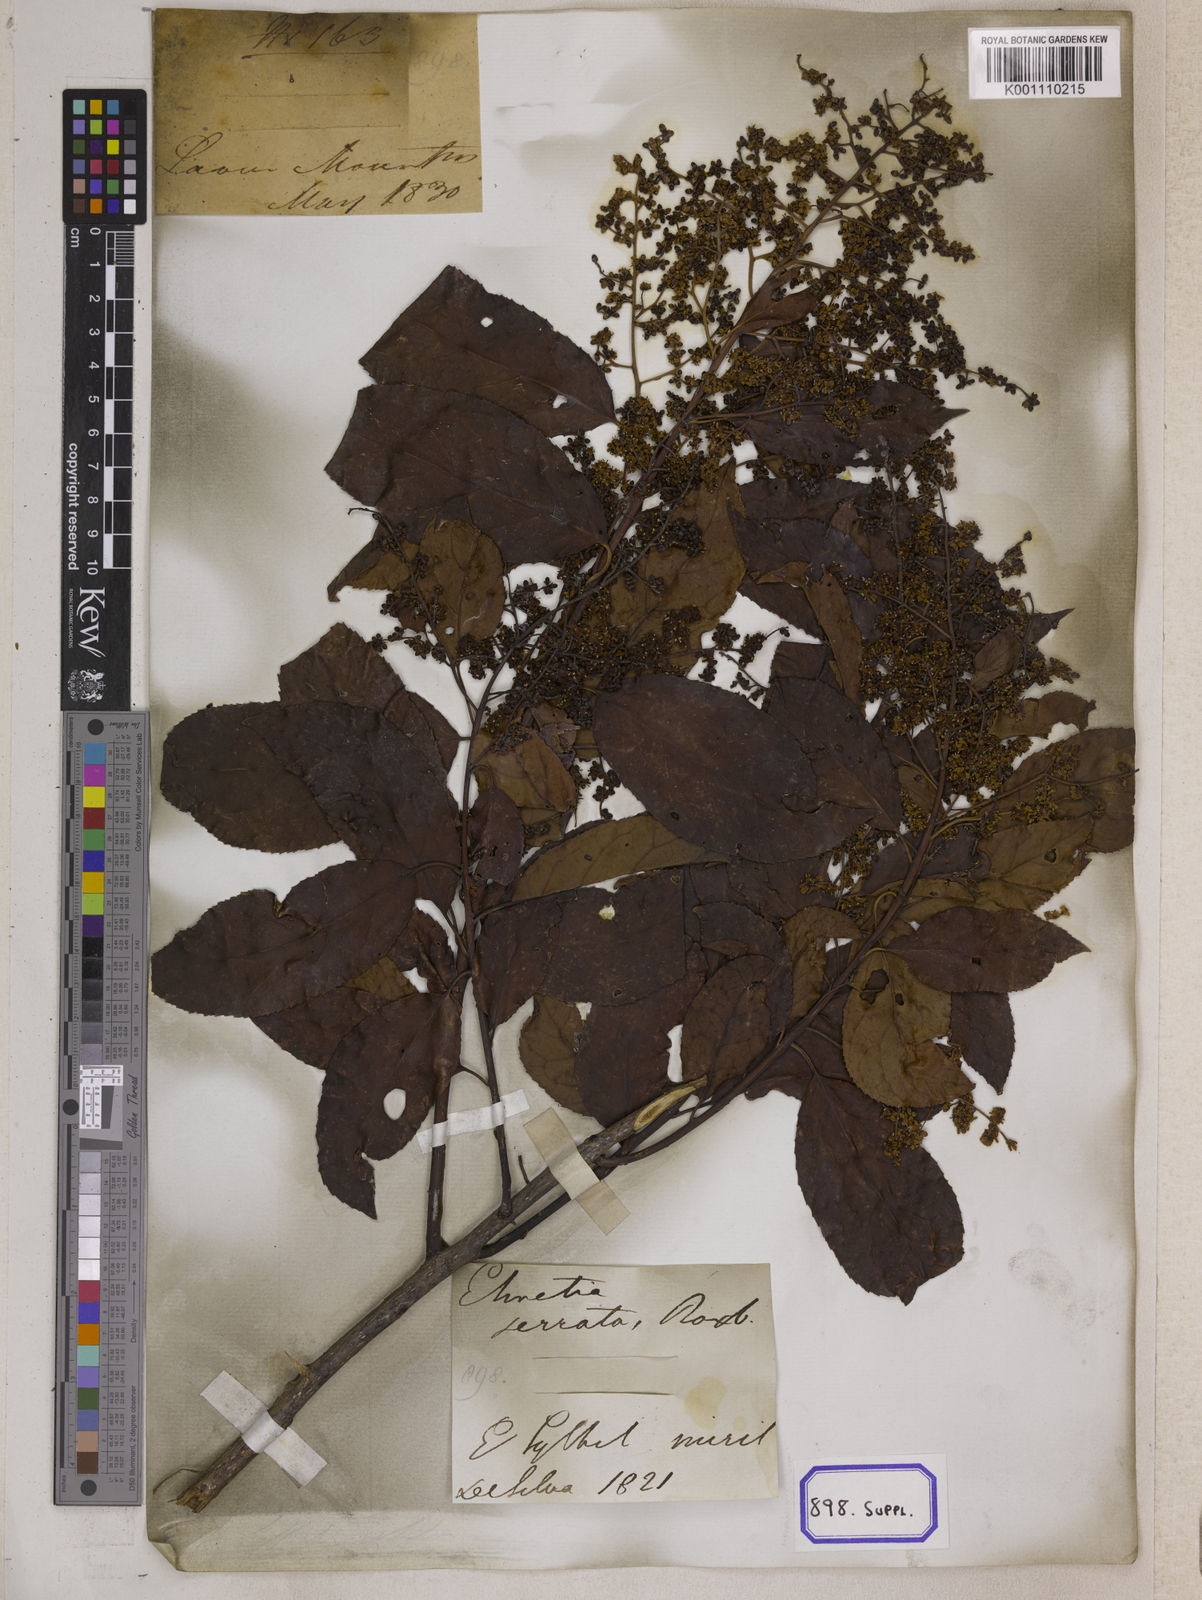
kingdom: Plantae
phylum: Tracheophyta
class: Magnoliopsida
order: Boraginales
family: Ehretiaceae
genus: Ehretia
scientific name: Ehretia acuminata
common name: Kodo wood
